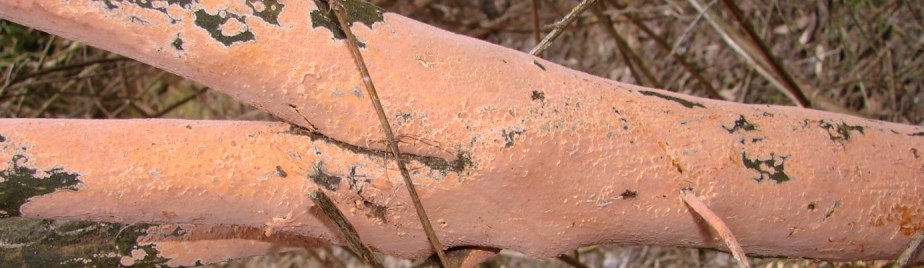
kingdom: Fungi
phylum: Basidiomycota
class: Agaricomycetes
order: Russulales
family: Peniophoraceae
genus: Peniophora
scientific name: Peniophora incarnata
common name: laksefarvet voksskind
